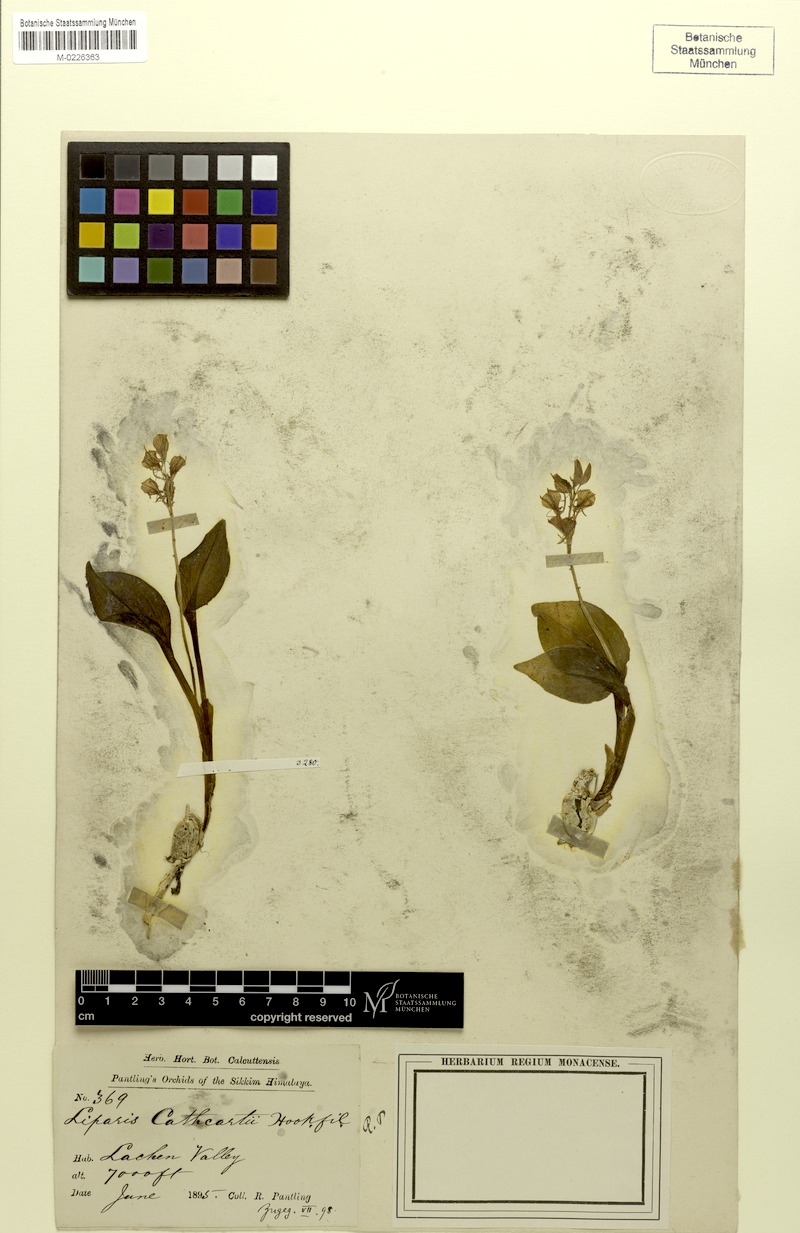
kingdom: Plantae
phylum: Tracheophyta
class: Liliopsida
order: Asparagales
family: Orchidaceae
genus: Liparis
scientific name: Liparis cathcartii
